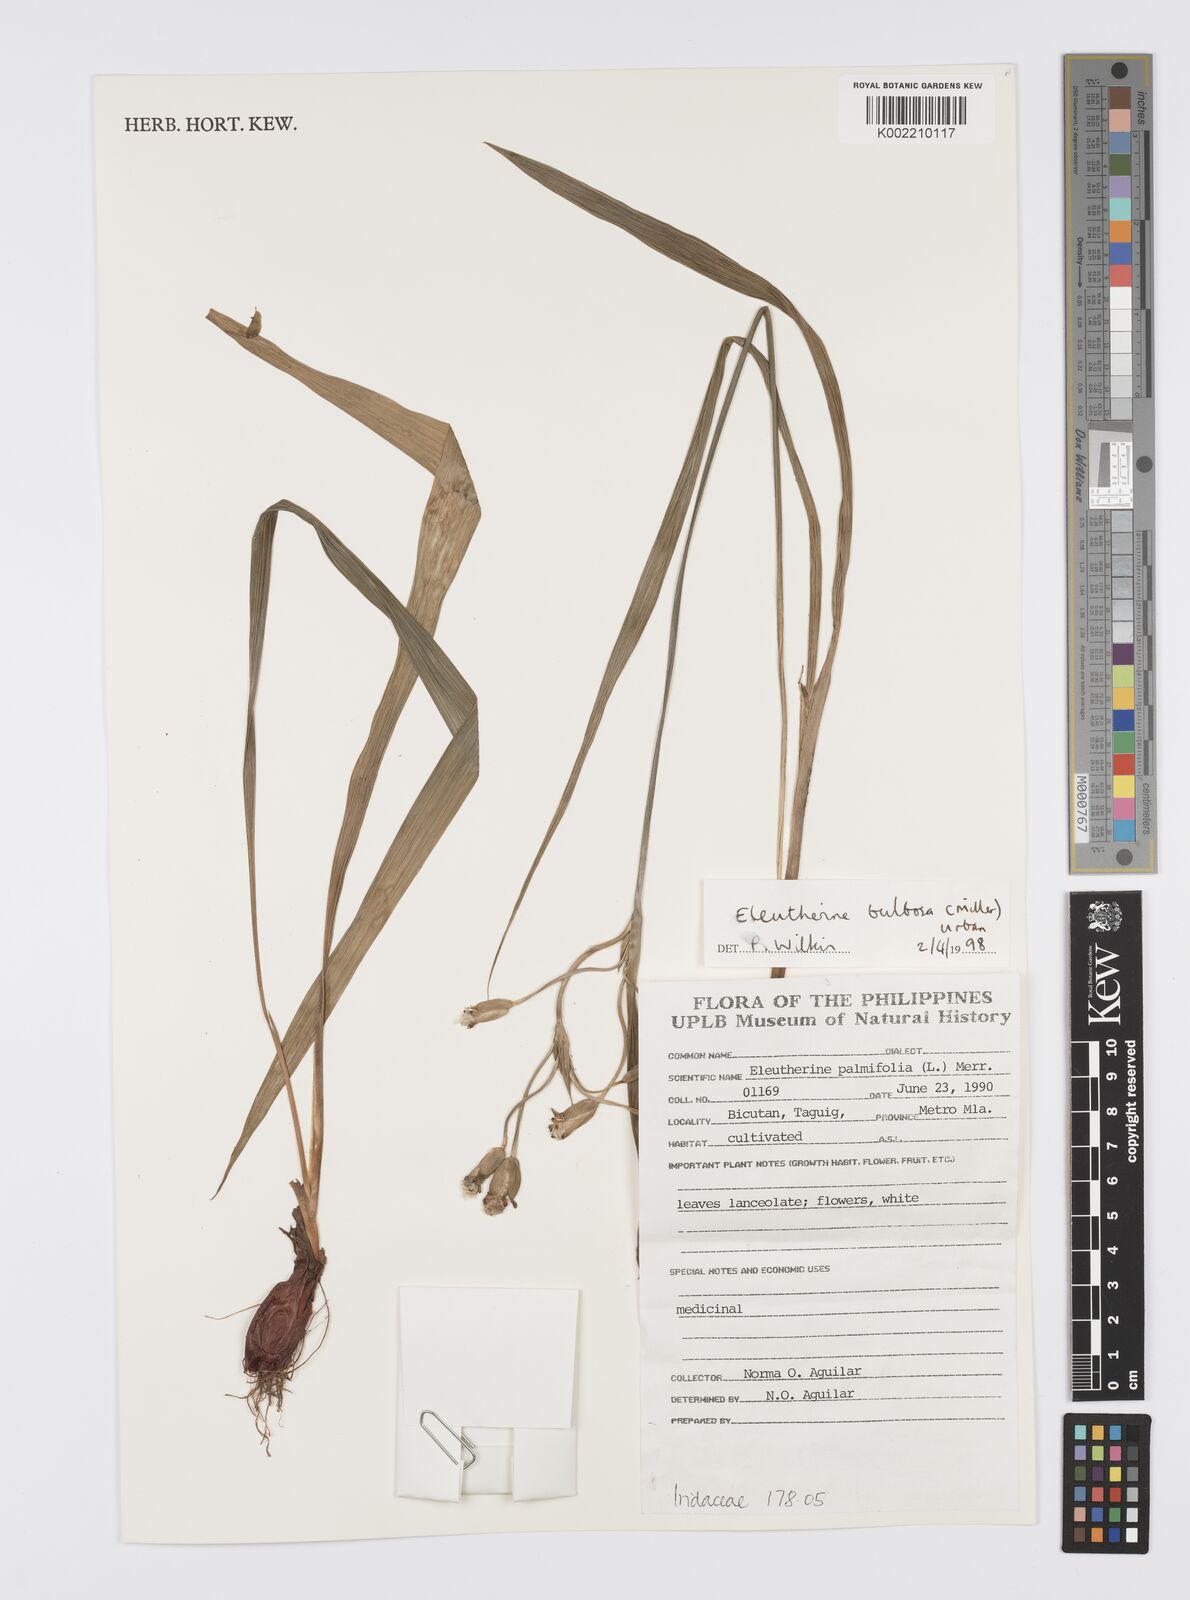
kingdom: Plantae
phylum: Tracheophyta
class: Liliopsida
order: Asparagales
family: Iridaceae
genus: Eleutherine
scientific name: Eleutherine bulbosa
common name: Lagrimas de la virgen
